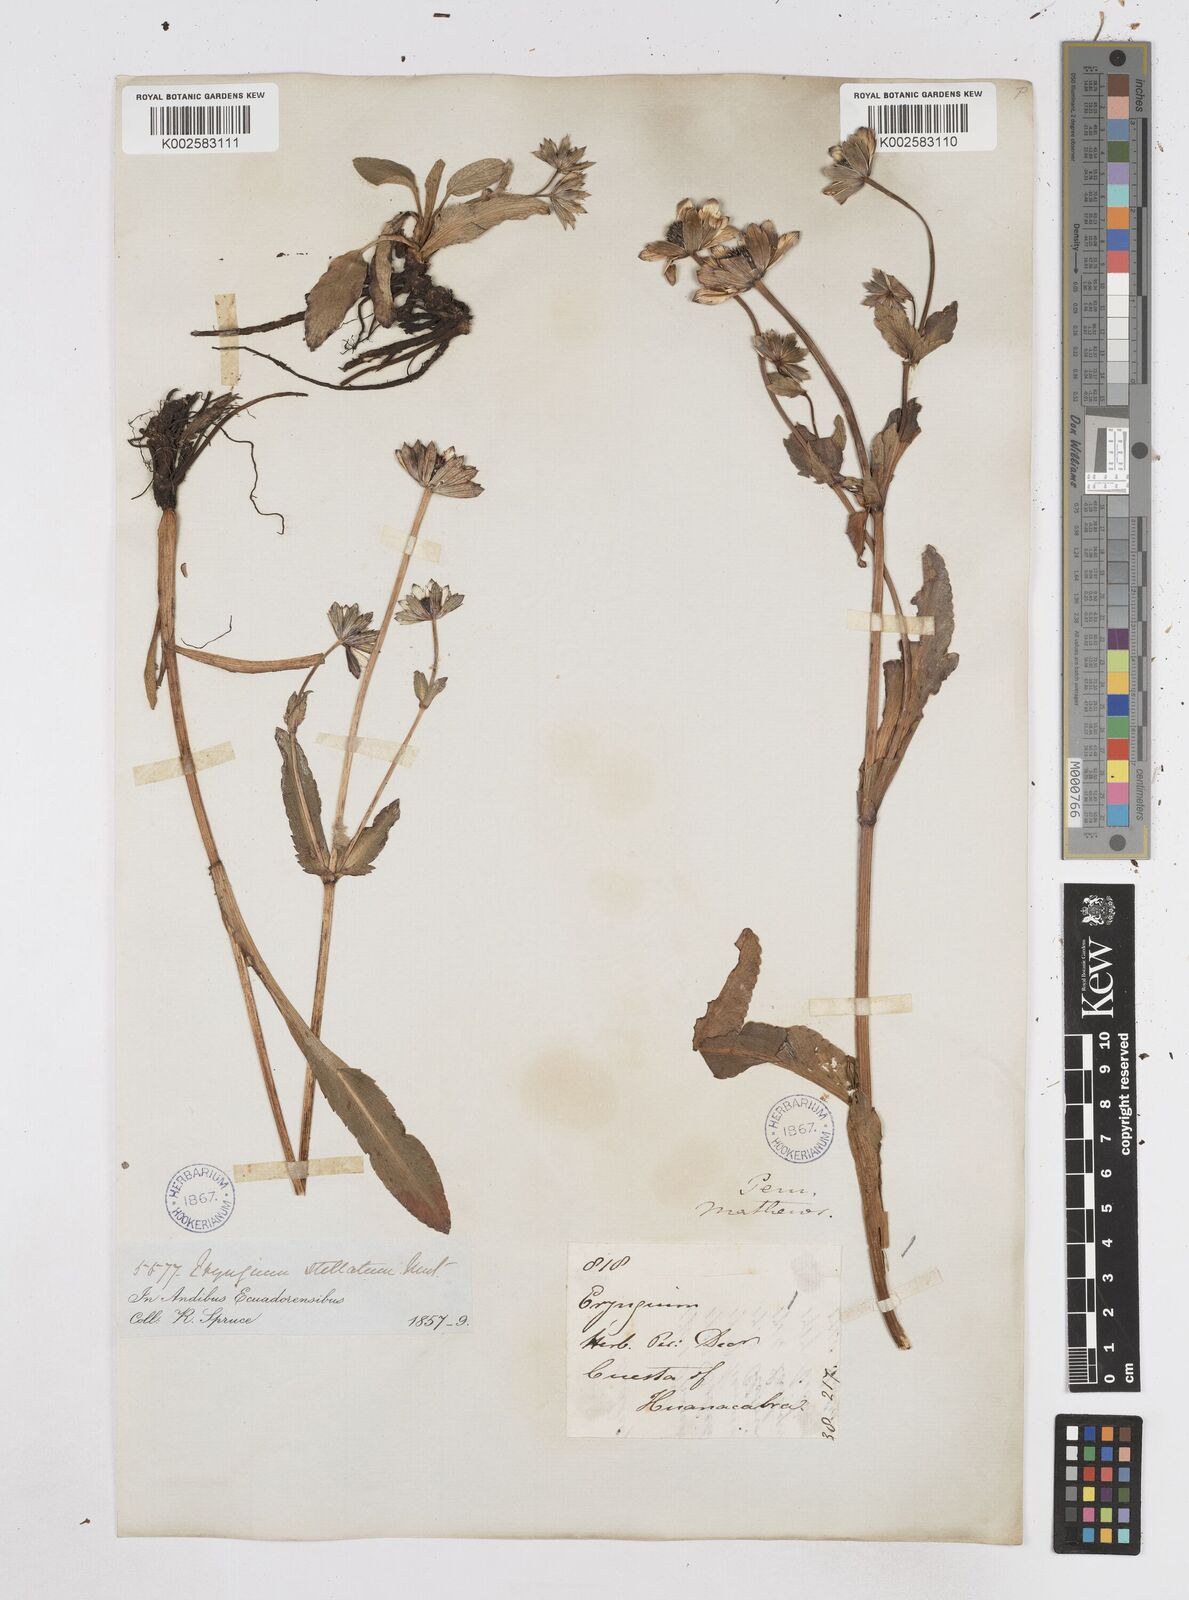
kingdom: Plantae
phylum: Tracheophyta
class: Magnoliopsida
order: Apiales
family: Apiaceae
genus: Eryngium
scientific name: Eryngium humile
